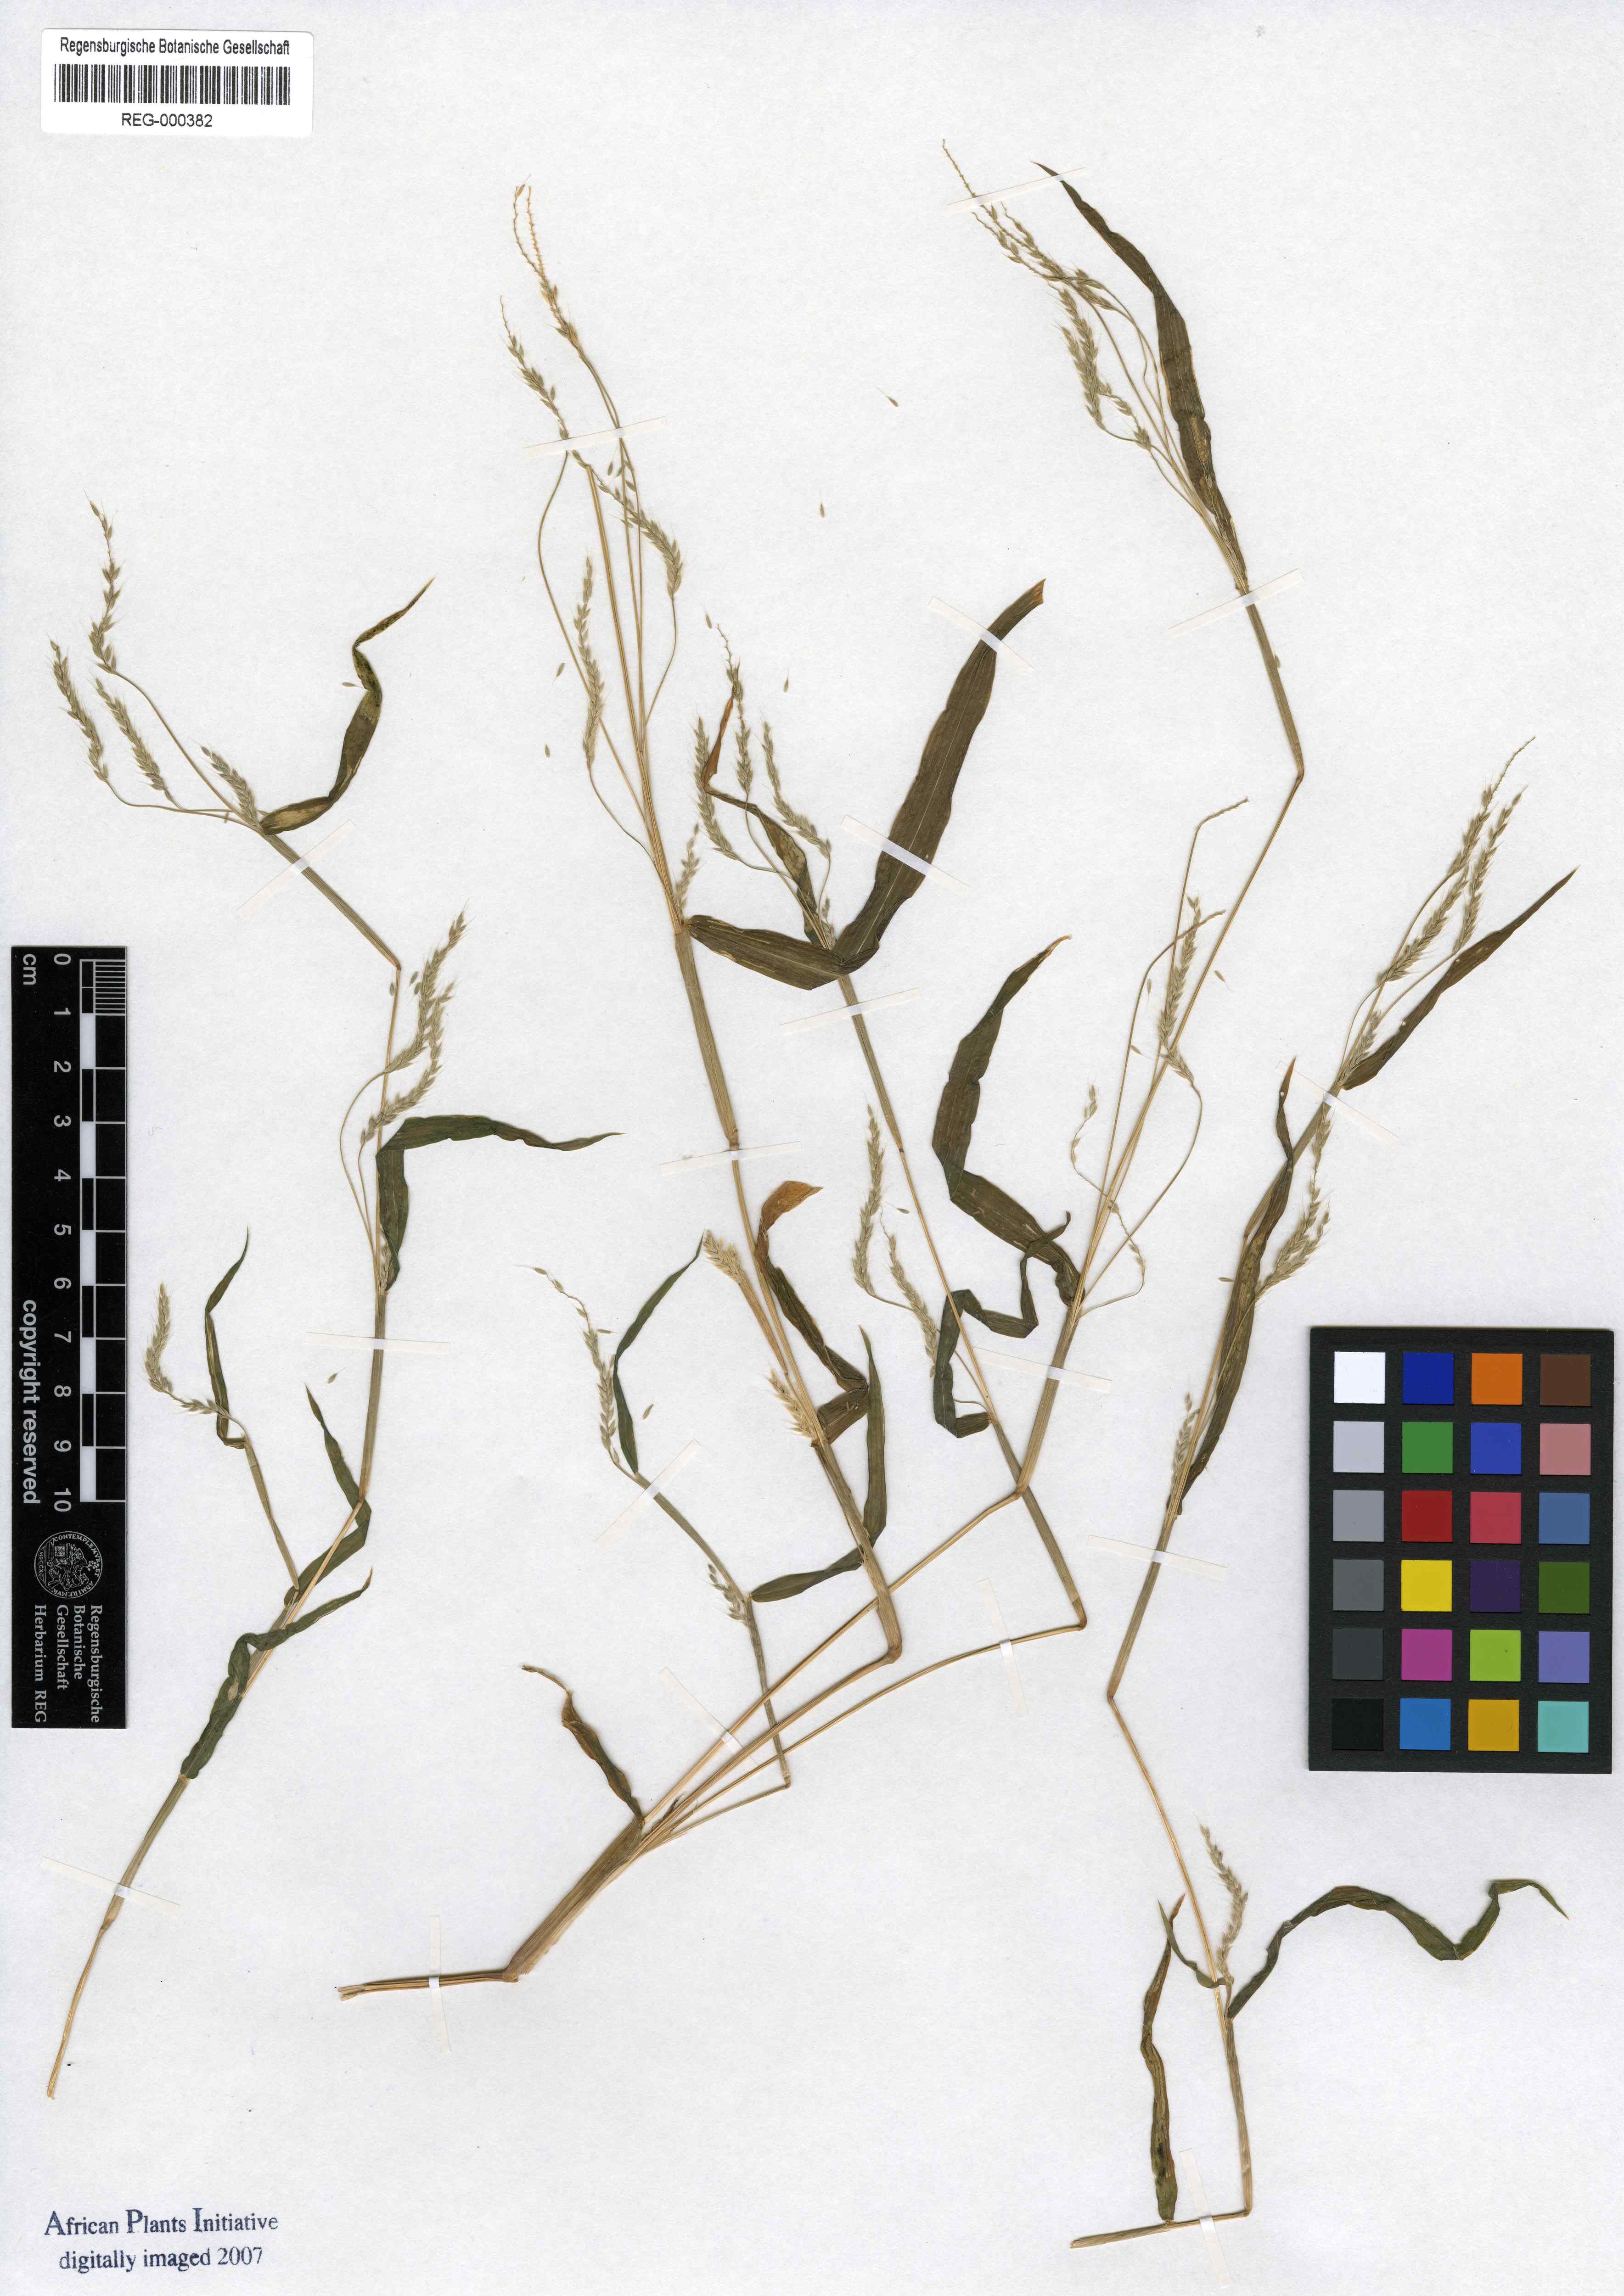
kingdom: Plantae
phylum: Tracheophyta
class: Liliopsida
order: Poales
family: Poaceae
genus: Snowdenia
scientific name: Snowdenia polystachya
